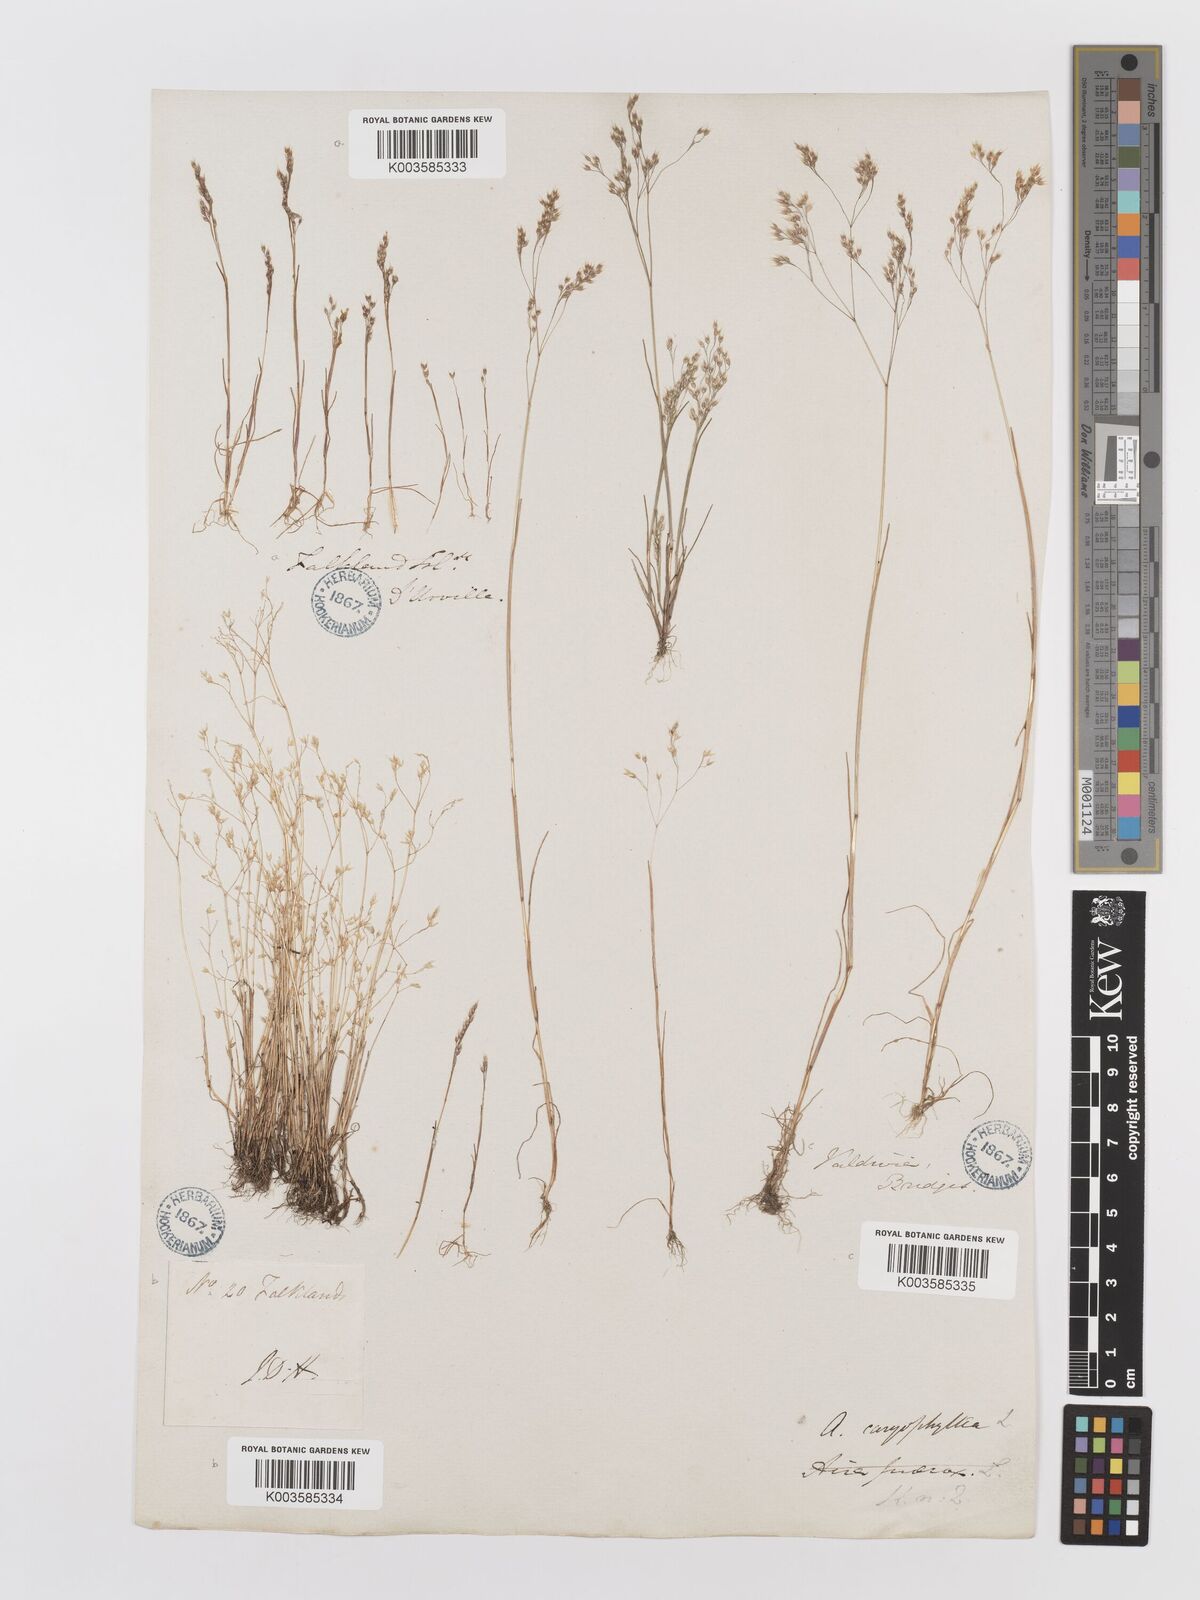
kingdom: Plantae
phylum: Tracheophyta
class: Liliopsida
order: Poales
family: Poaceae
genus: Aira
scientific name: Aira caryophyllea
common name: Silver hairgrass
